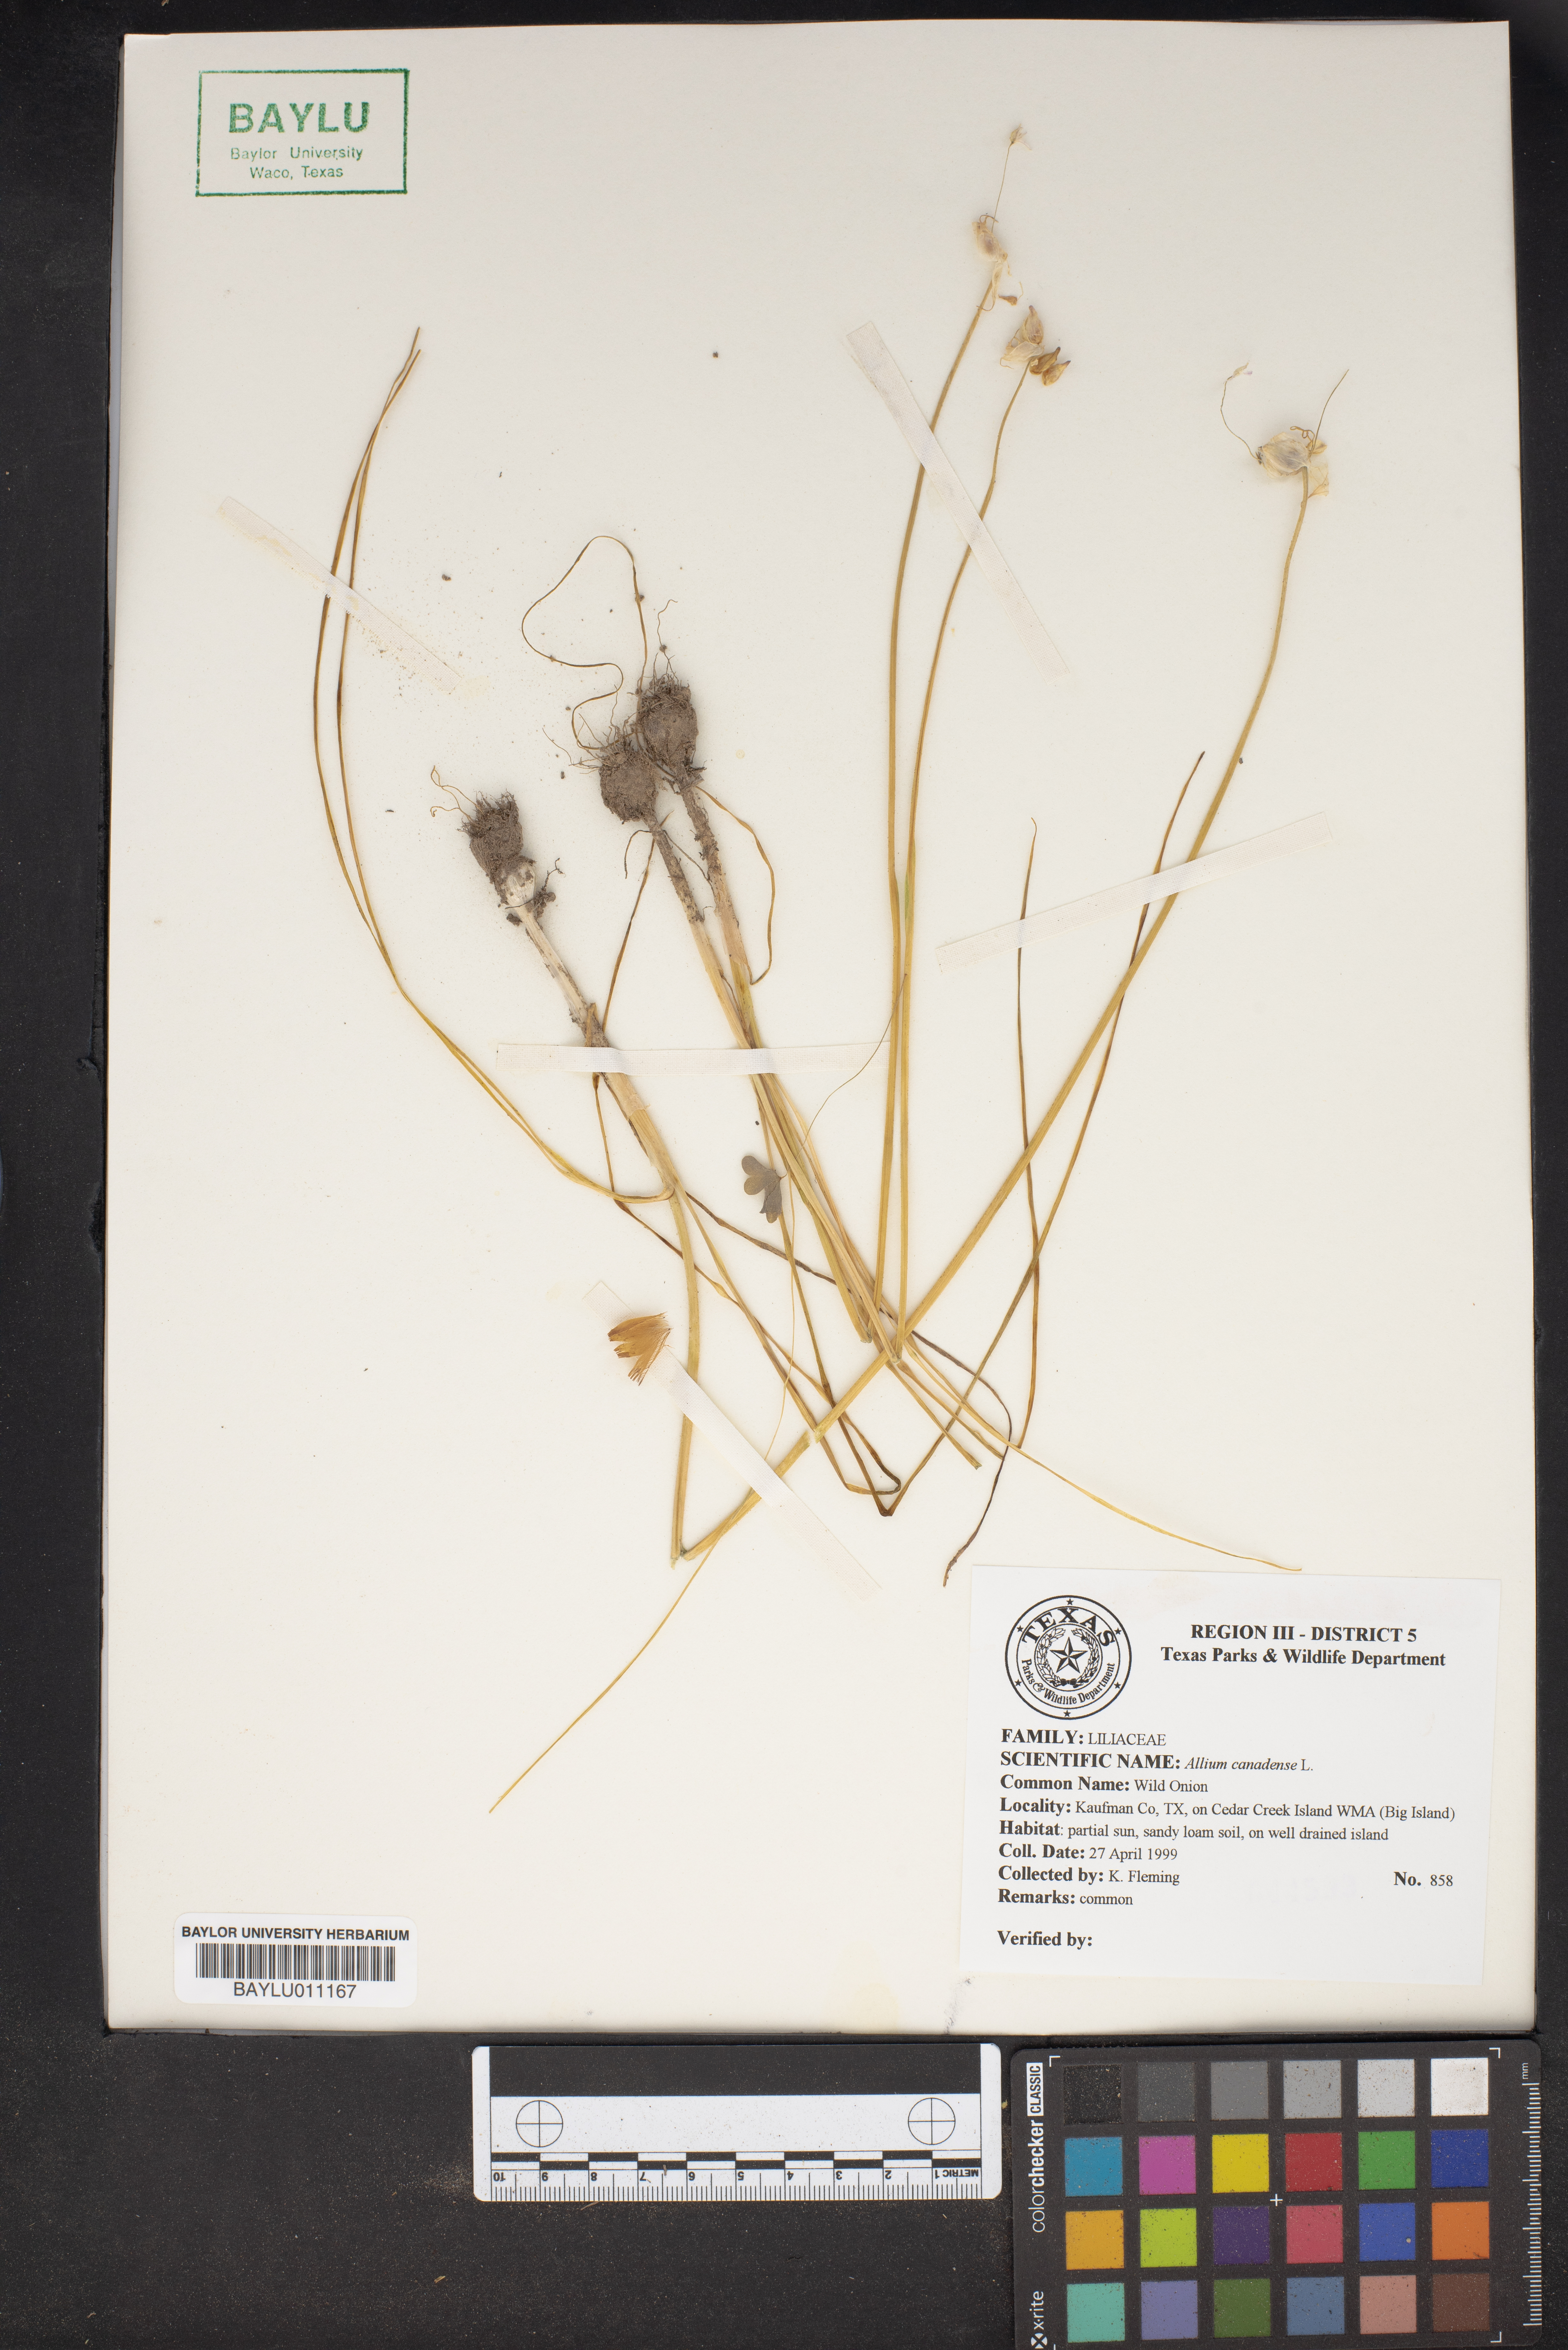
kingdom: Plantae
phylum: Tracheophyta
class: Liliopsida
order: Asparagales
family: Amaryllidaceae
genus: Allium
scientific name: Allium canadense
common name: Meadow garlic
